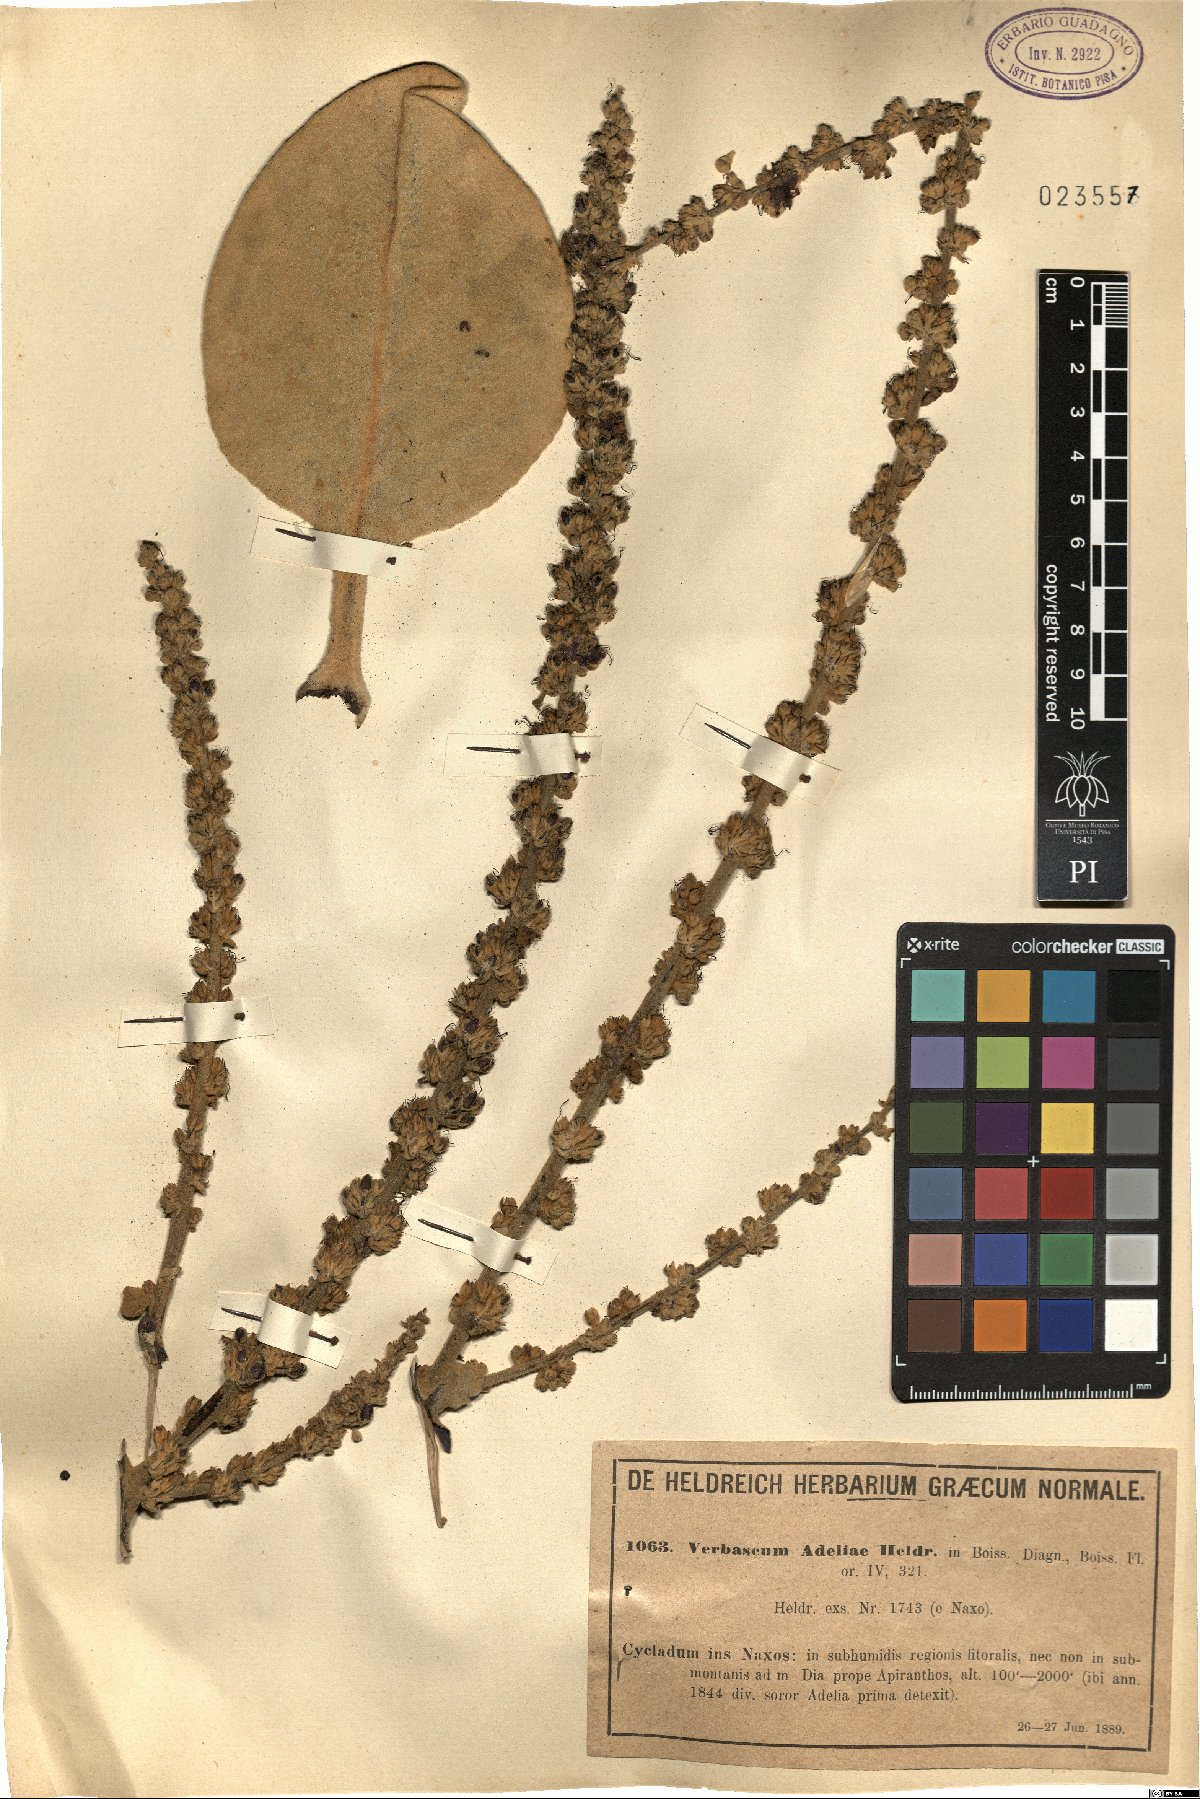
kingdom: Plantae
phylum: Tracheophyta
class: Magnoliopsida
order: Lamiales
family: Scrophulariaceae
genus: Verbascum
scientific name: Verbascum adeliae
